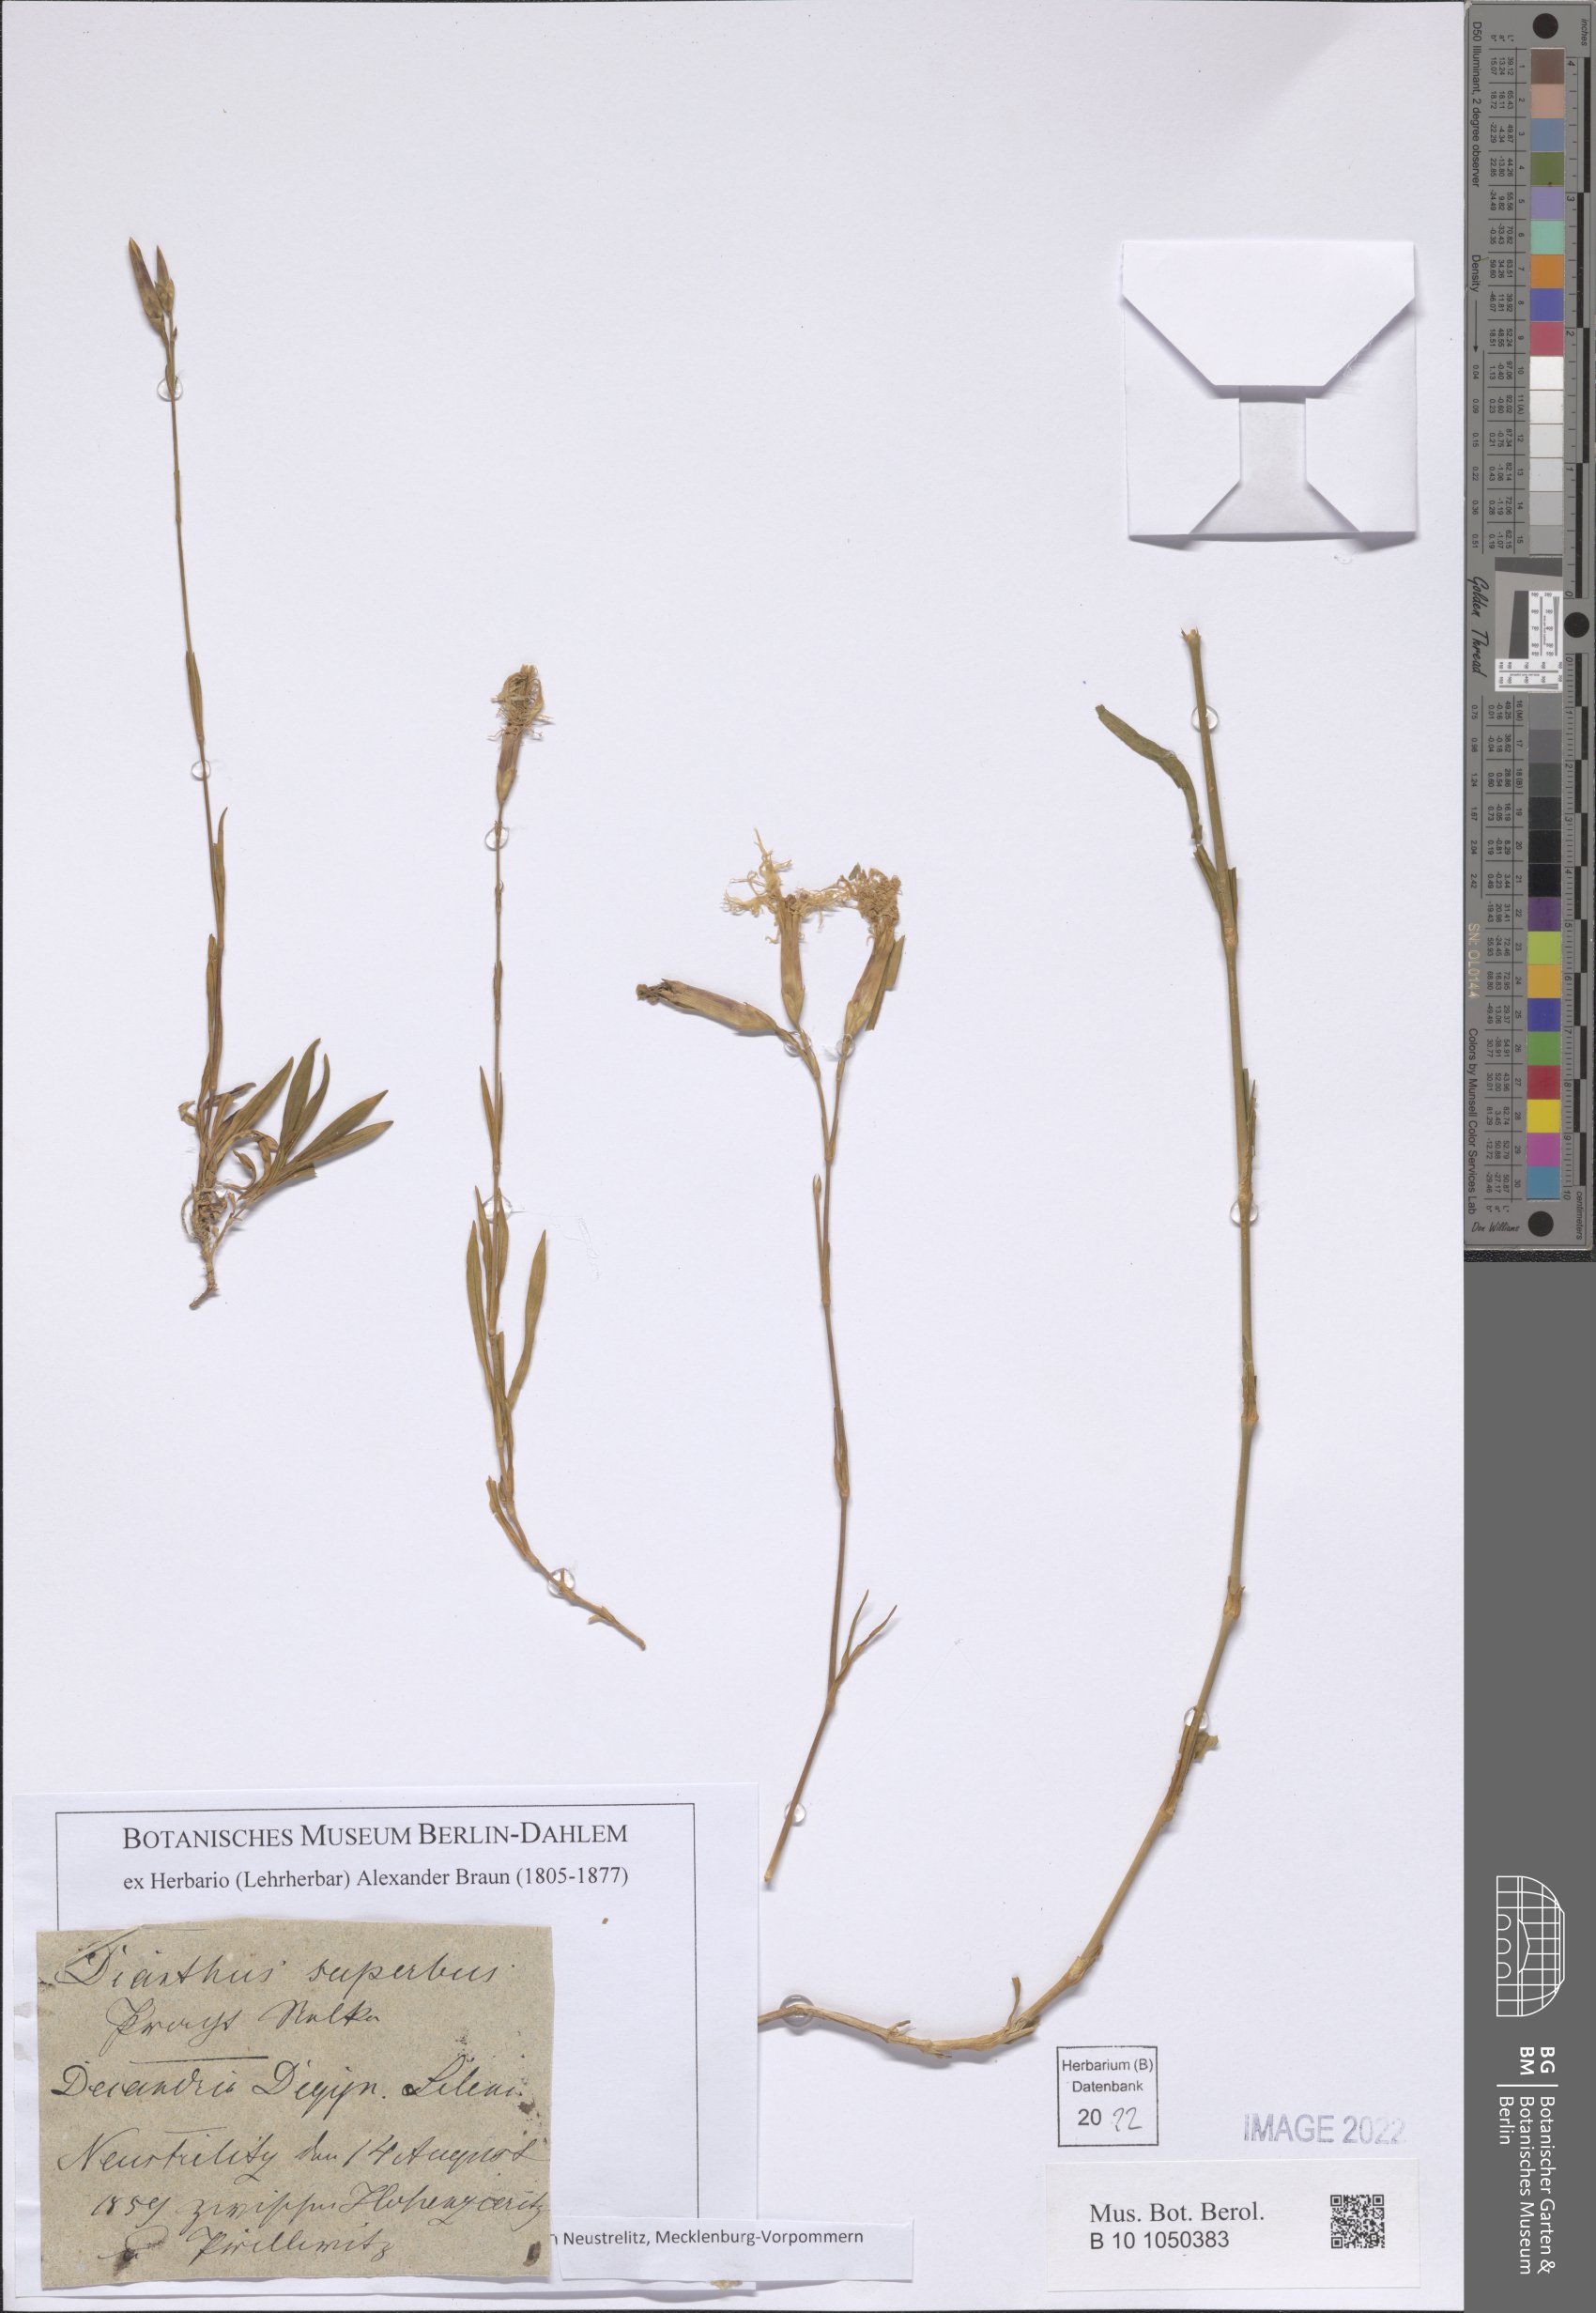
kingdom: Plantae
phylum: Tracheophyta
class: Magnoliopsida
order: Caryophyllales
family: Caryophyllaceae
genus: Dianthus
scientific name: Dianthus superbus
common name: Fringed pink
